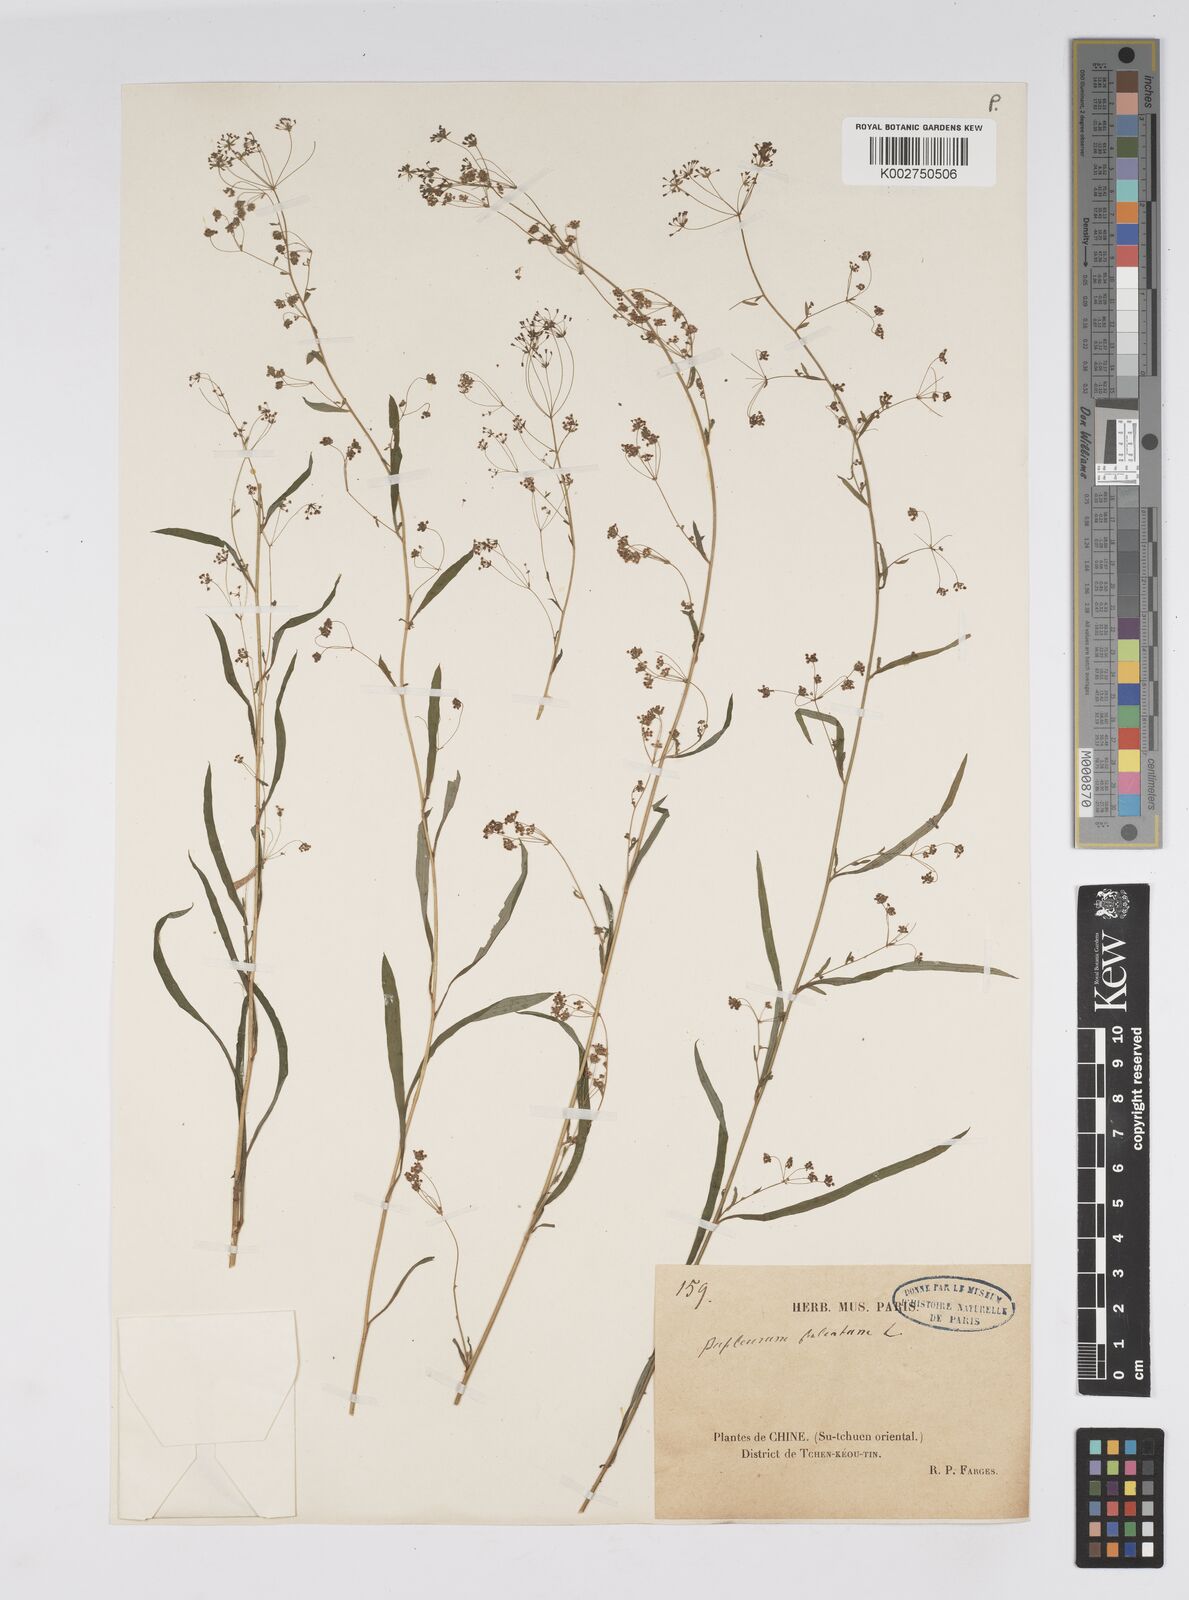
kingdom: Plantae
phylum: Tracheophyta
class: Magnoliopsida
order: Apiales
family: Apiaceae
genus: Bupleurum
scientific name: Bupleurum krylovianum
